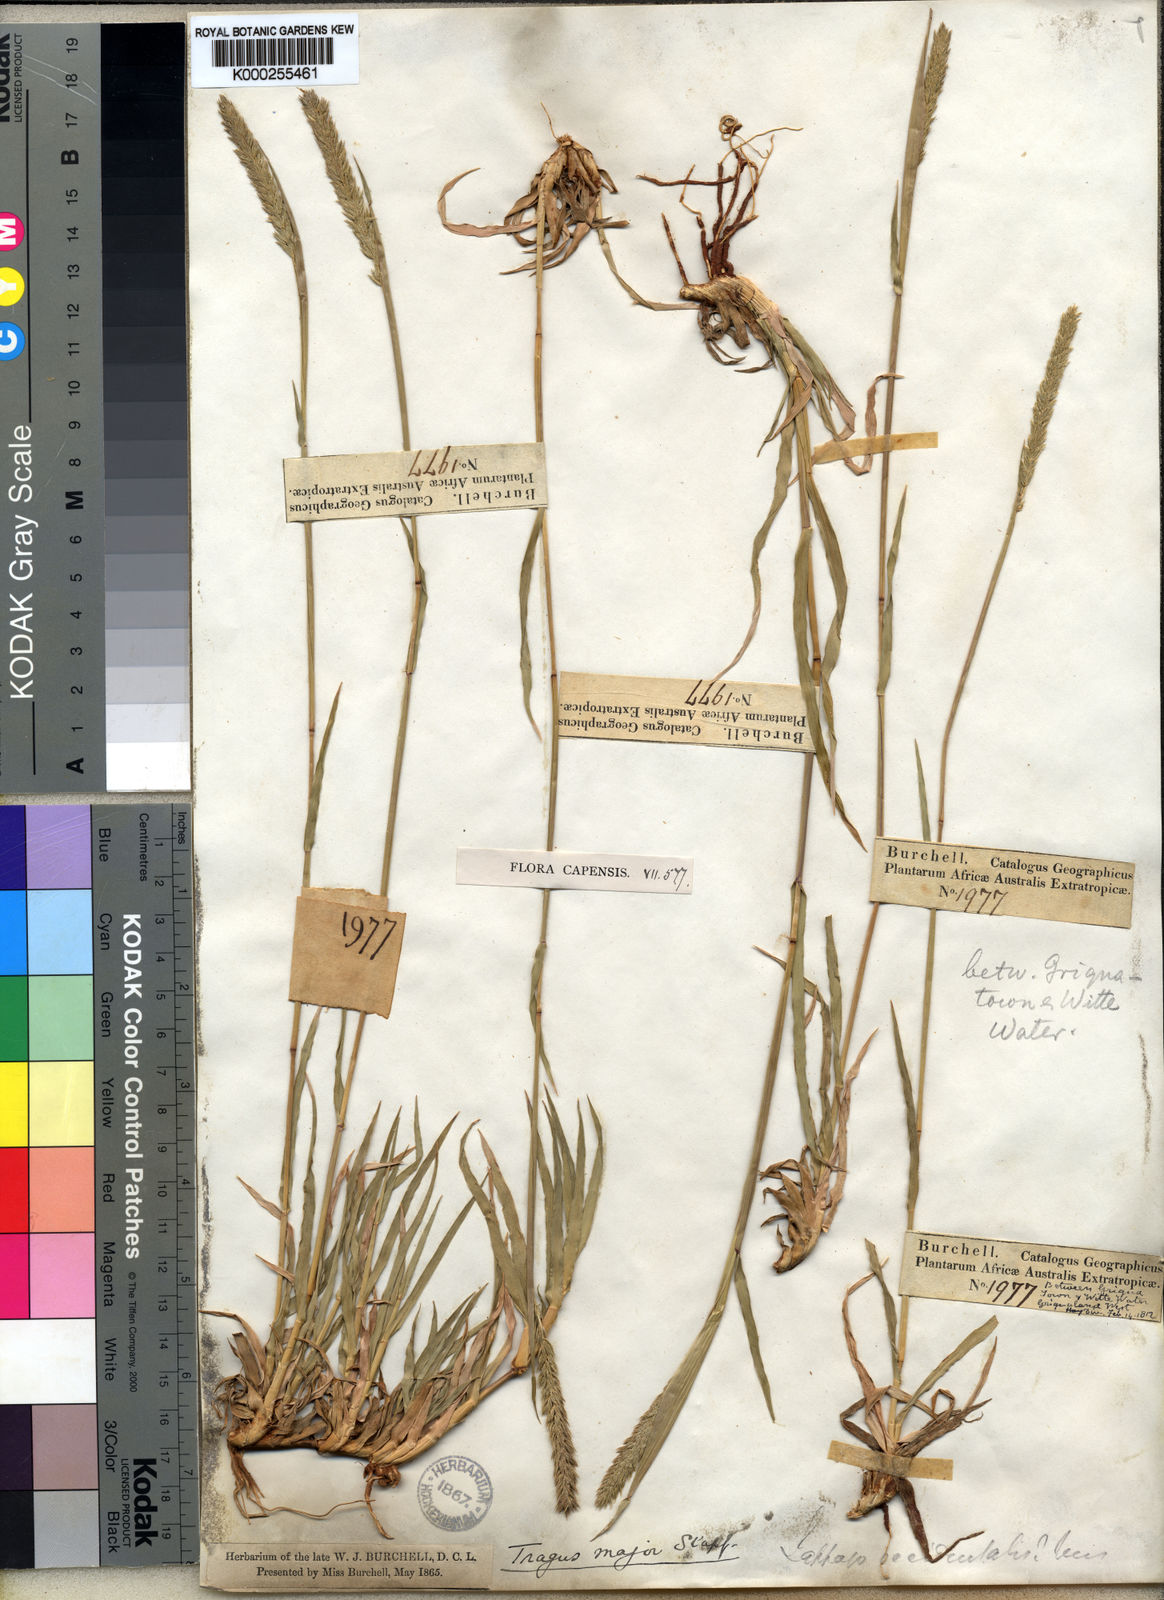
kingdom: Plantae
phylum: Tracheophyta
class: Liliopsida
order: Poales
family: Poaceae
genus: Tragus
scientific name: Tragus koelerioides
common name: Creeping carrot-seed grass
